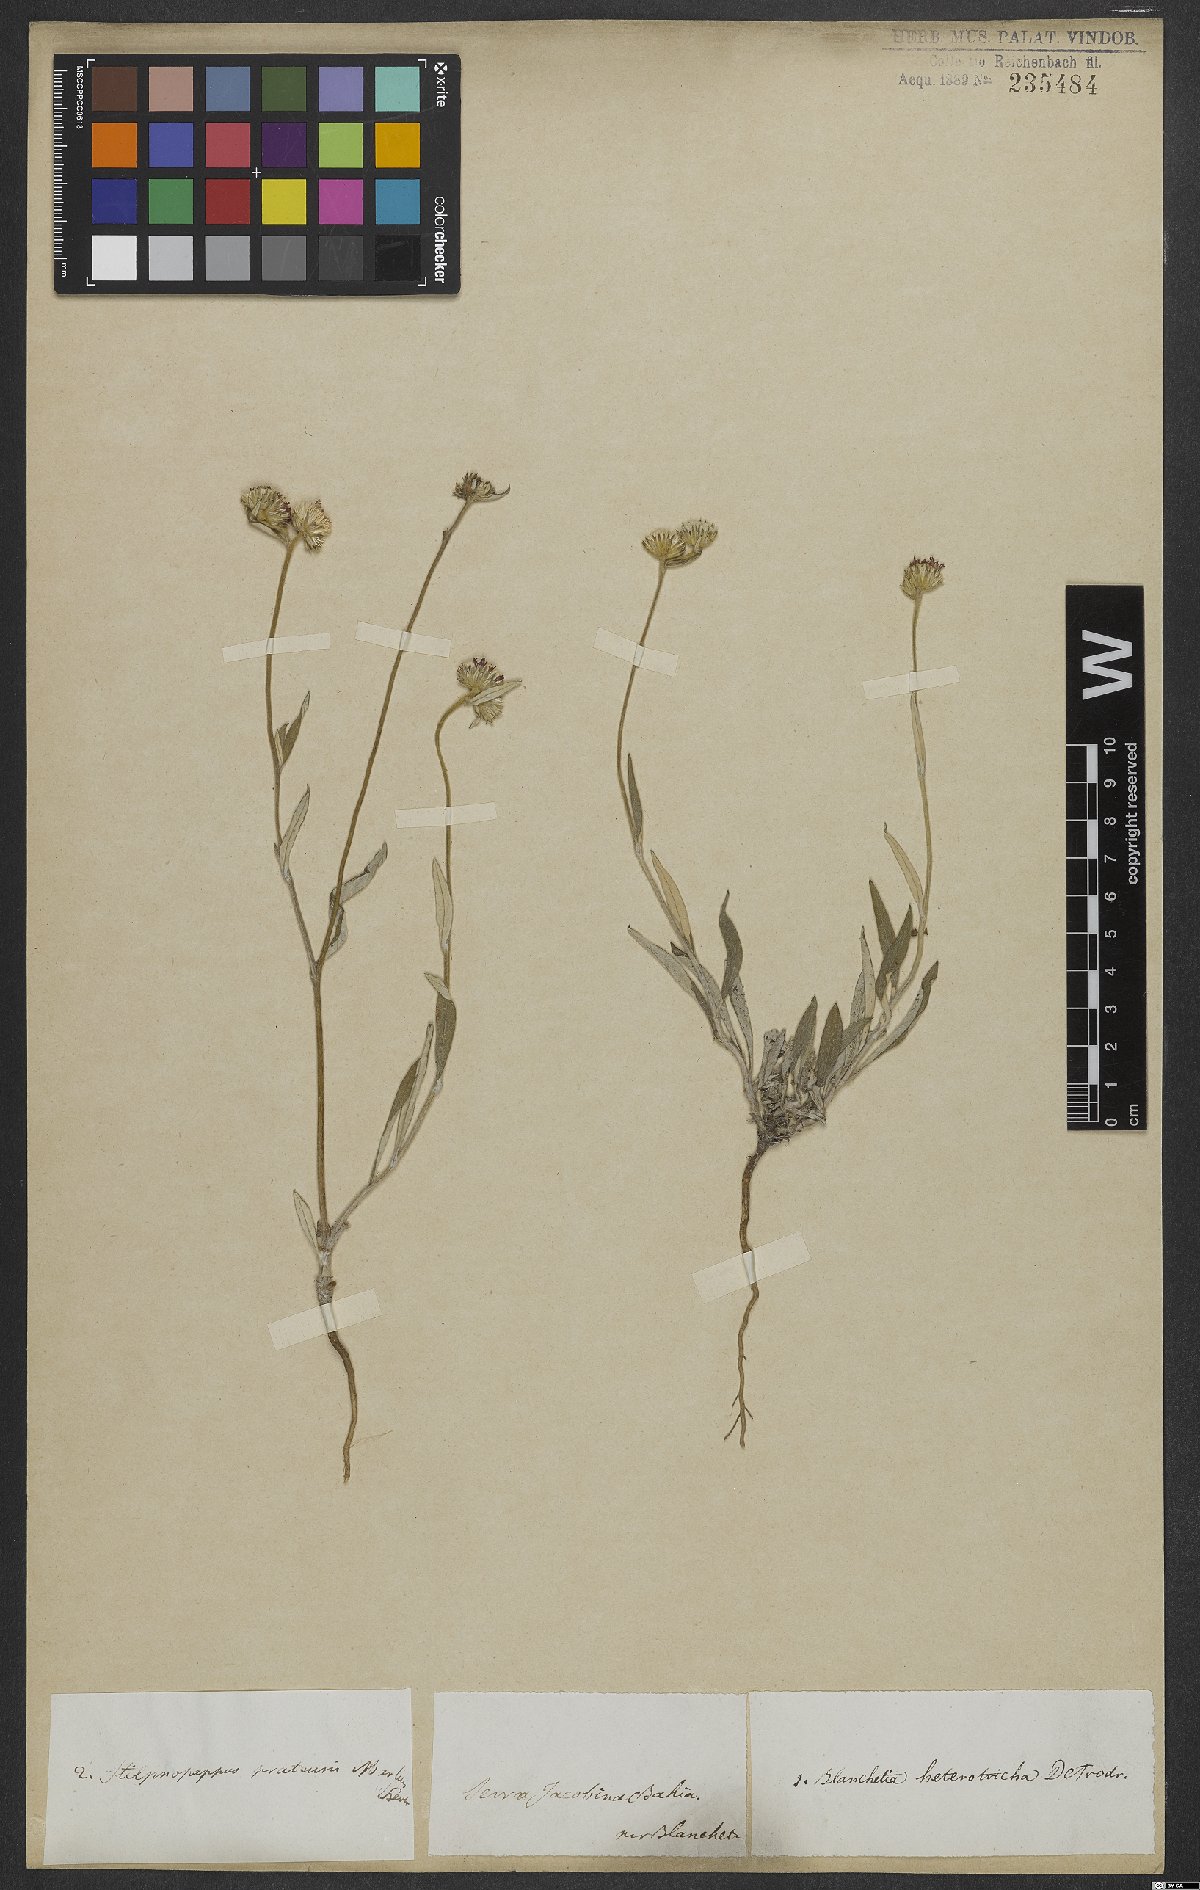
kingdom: Plantae
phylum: Tracheophyta
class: Magnoliopsida
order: Asterales
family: Asteraceae
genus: Stilpnopappus
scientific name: Stilpnopappus pratensis
